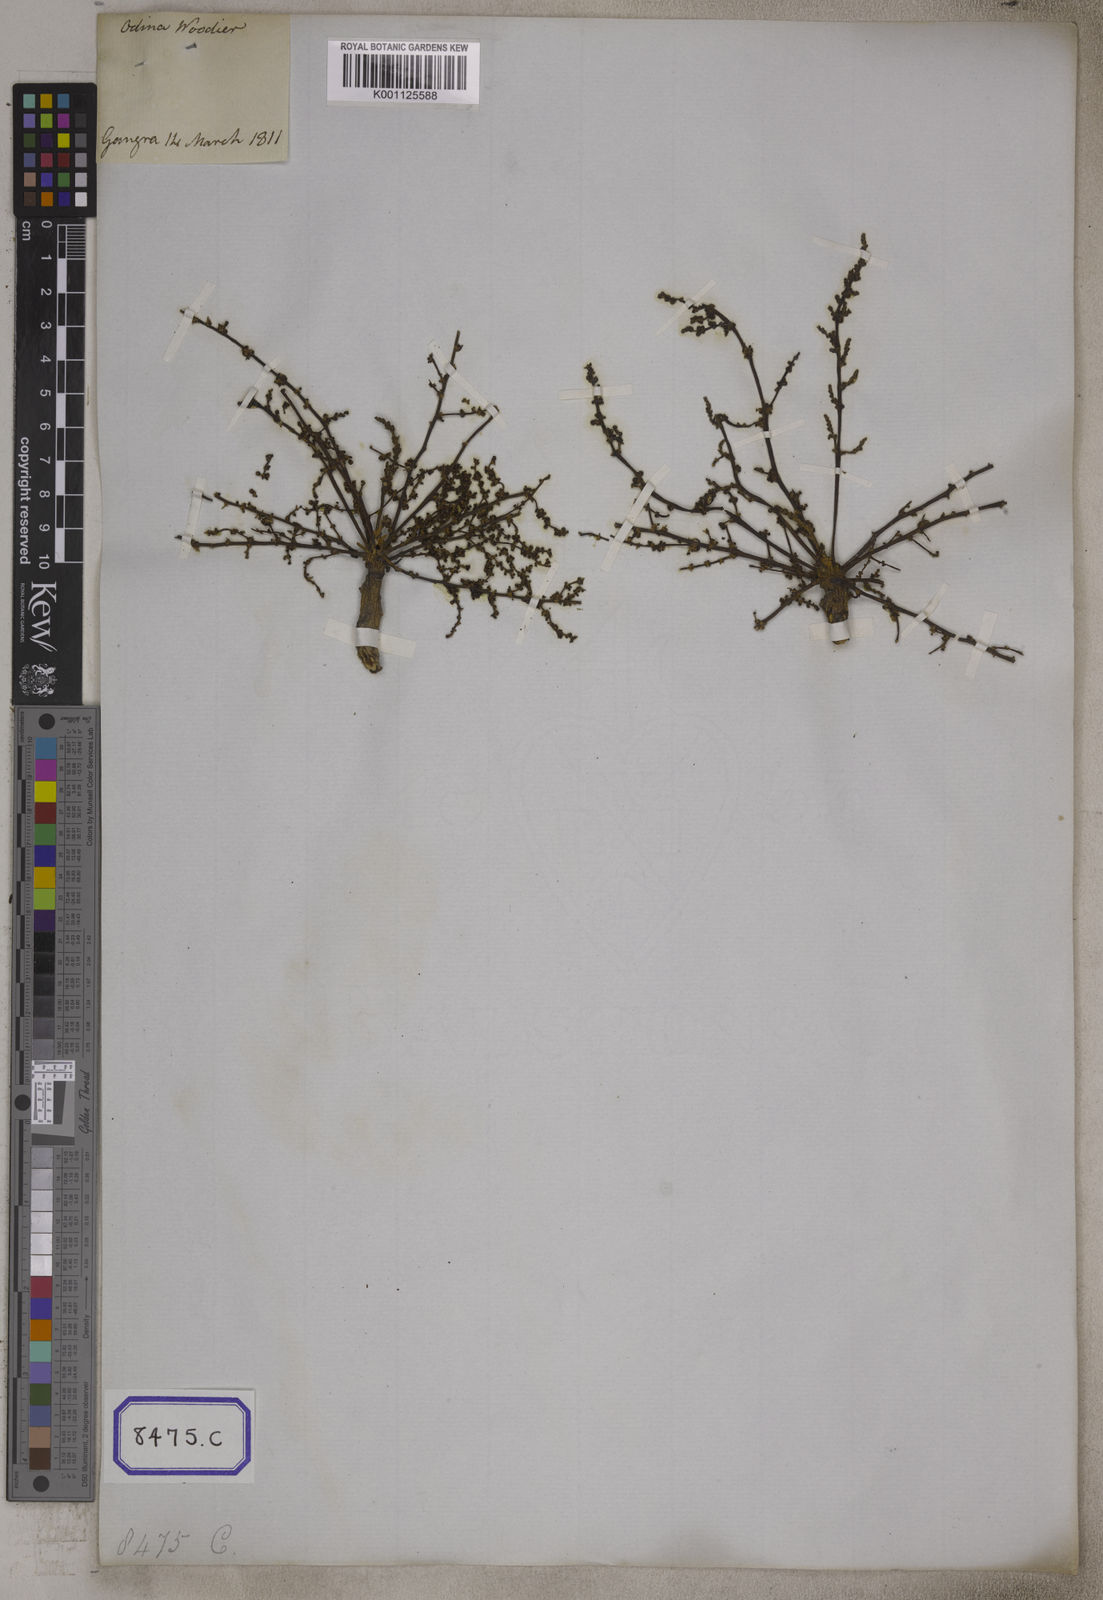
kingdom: Plantae
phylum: Tracheophyta
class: Magnoliopsida
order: Sapindales
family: Anacardiaceae
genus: Lannea
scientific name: Lannea coromandelica
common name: Indian ash tree
